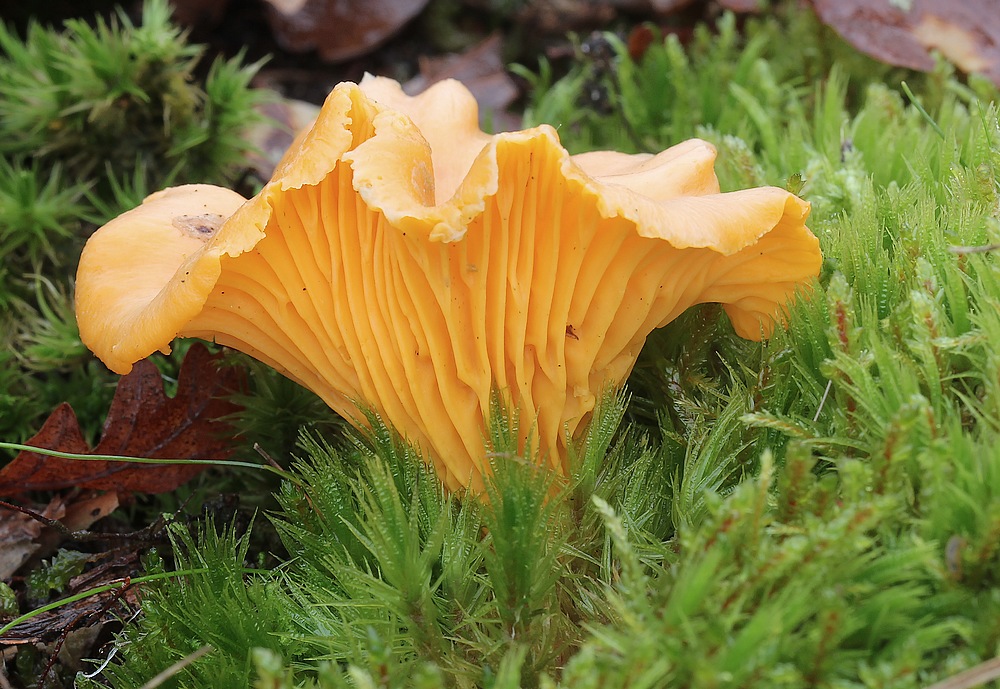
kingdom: Fungi
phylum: Basidiomycota
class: Agaricomycetes
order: Cantharellales
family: Hydnaceae
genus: Cantharellus
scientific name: Cantharellus cibarius
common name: almindelig kantarel
